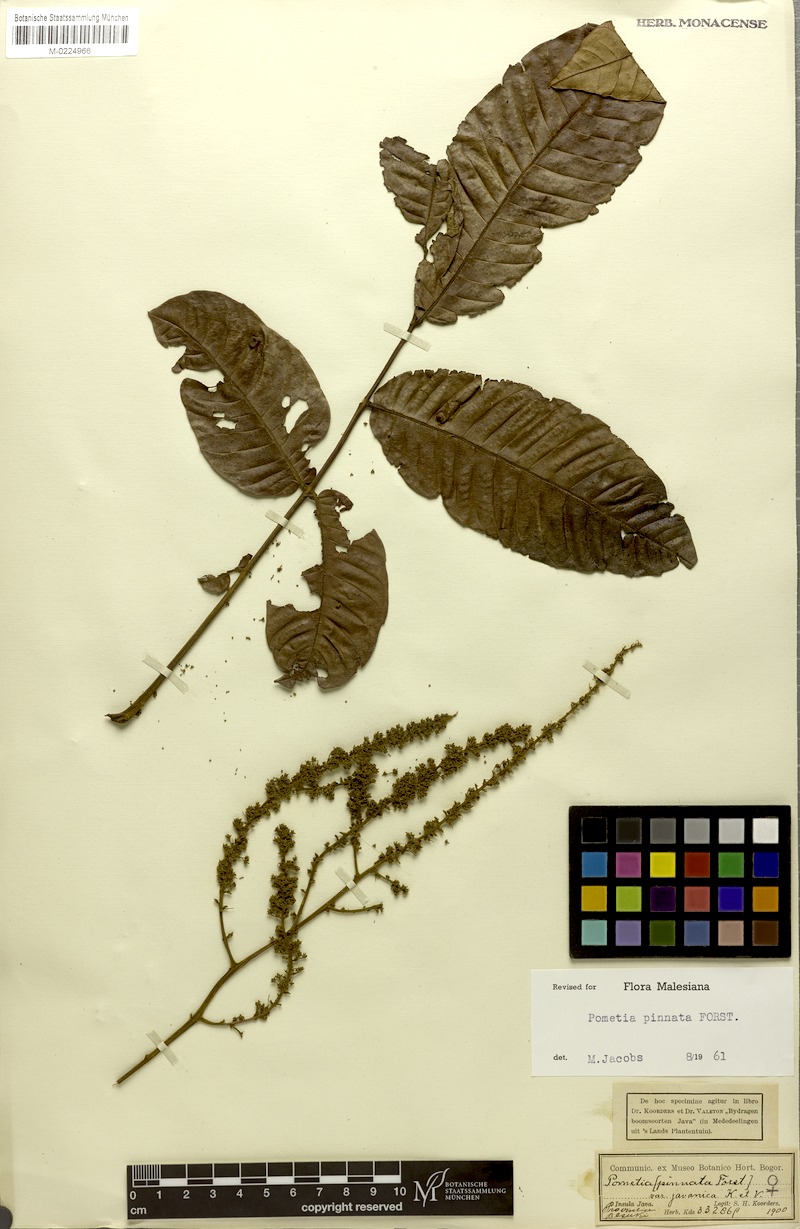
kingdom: Plantae
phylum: Tracheophyta
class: Magnoliopsida
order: Sapindales
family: Sapindaceae
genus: Pometia
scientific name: Pometia pinnata
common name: Oceanic lychee
